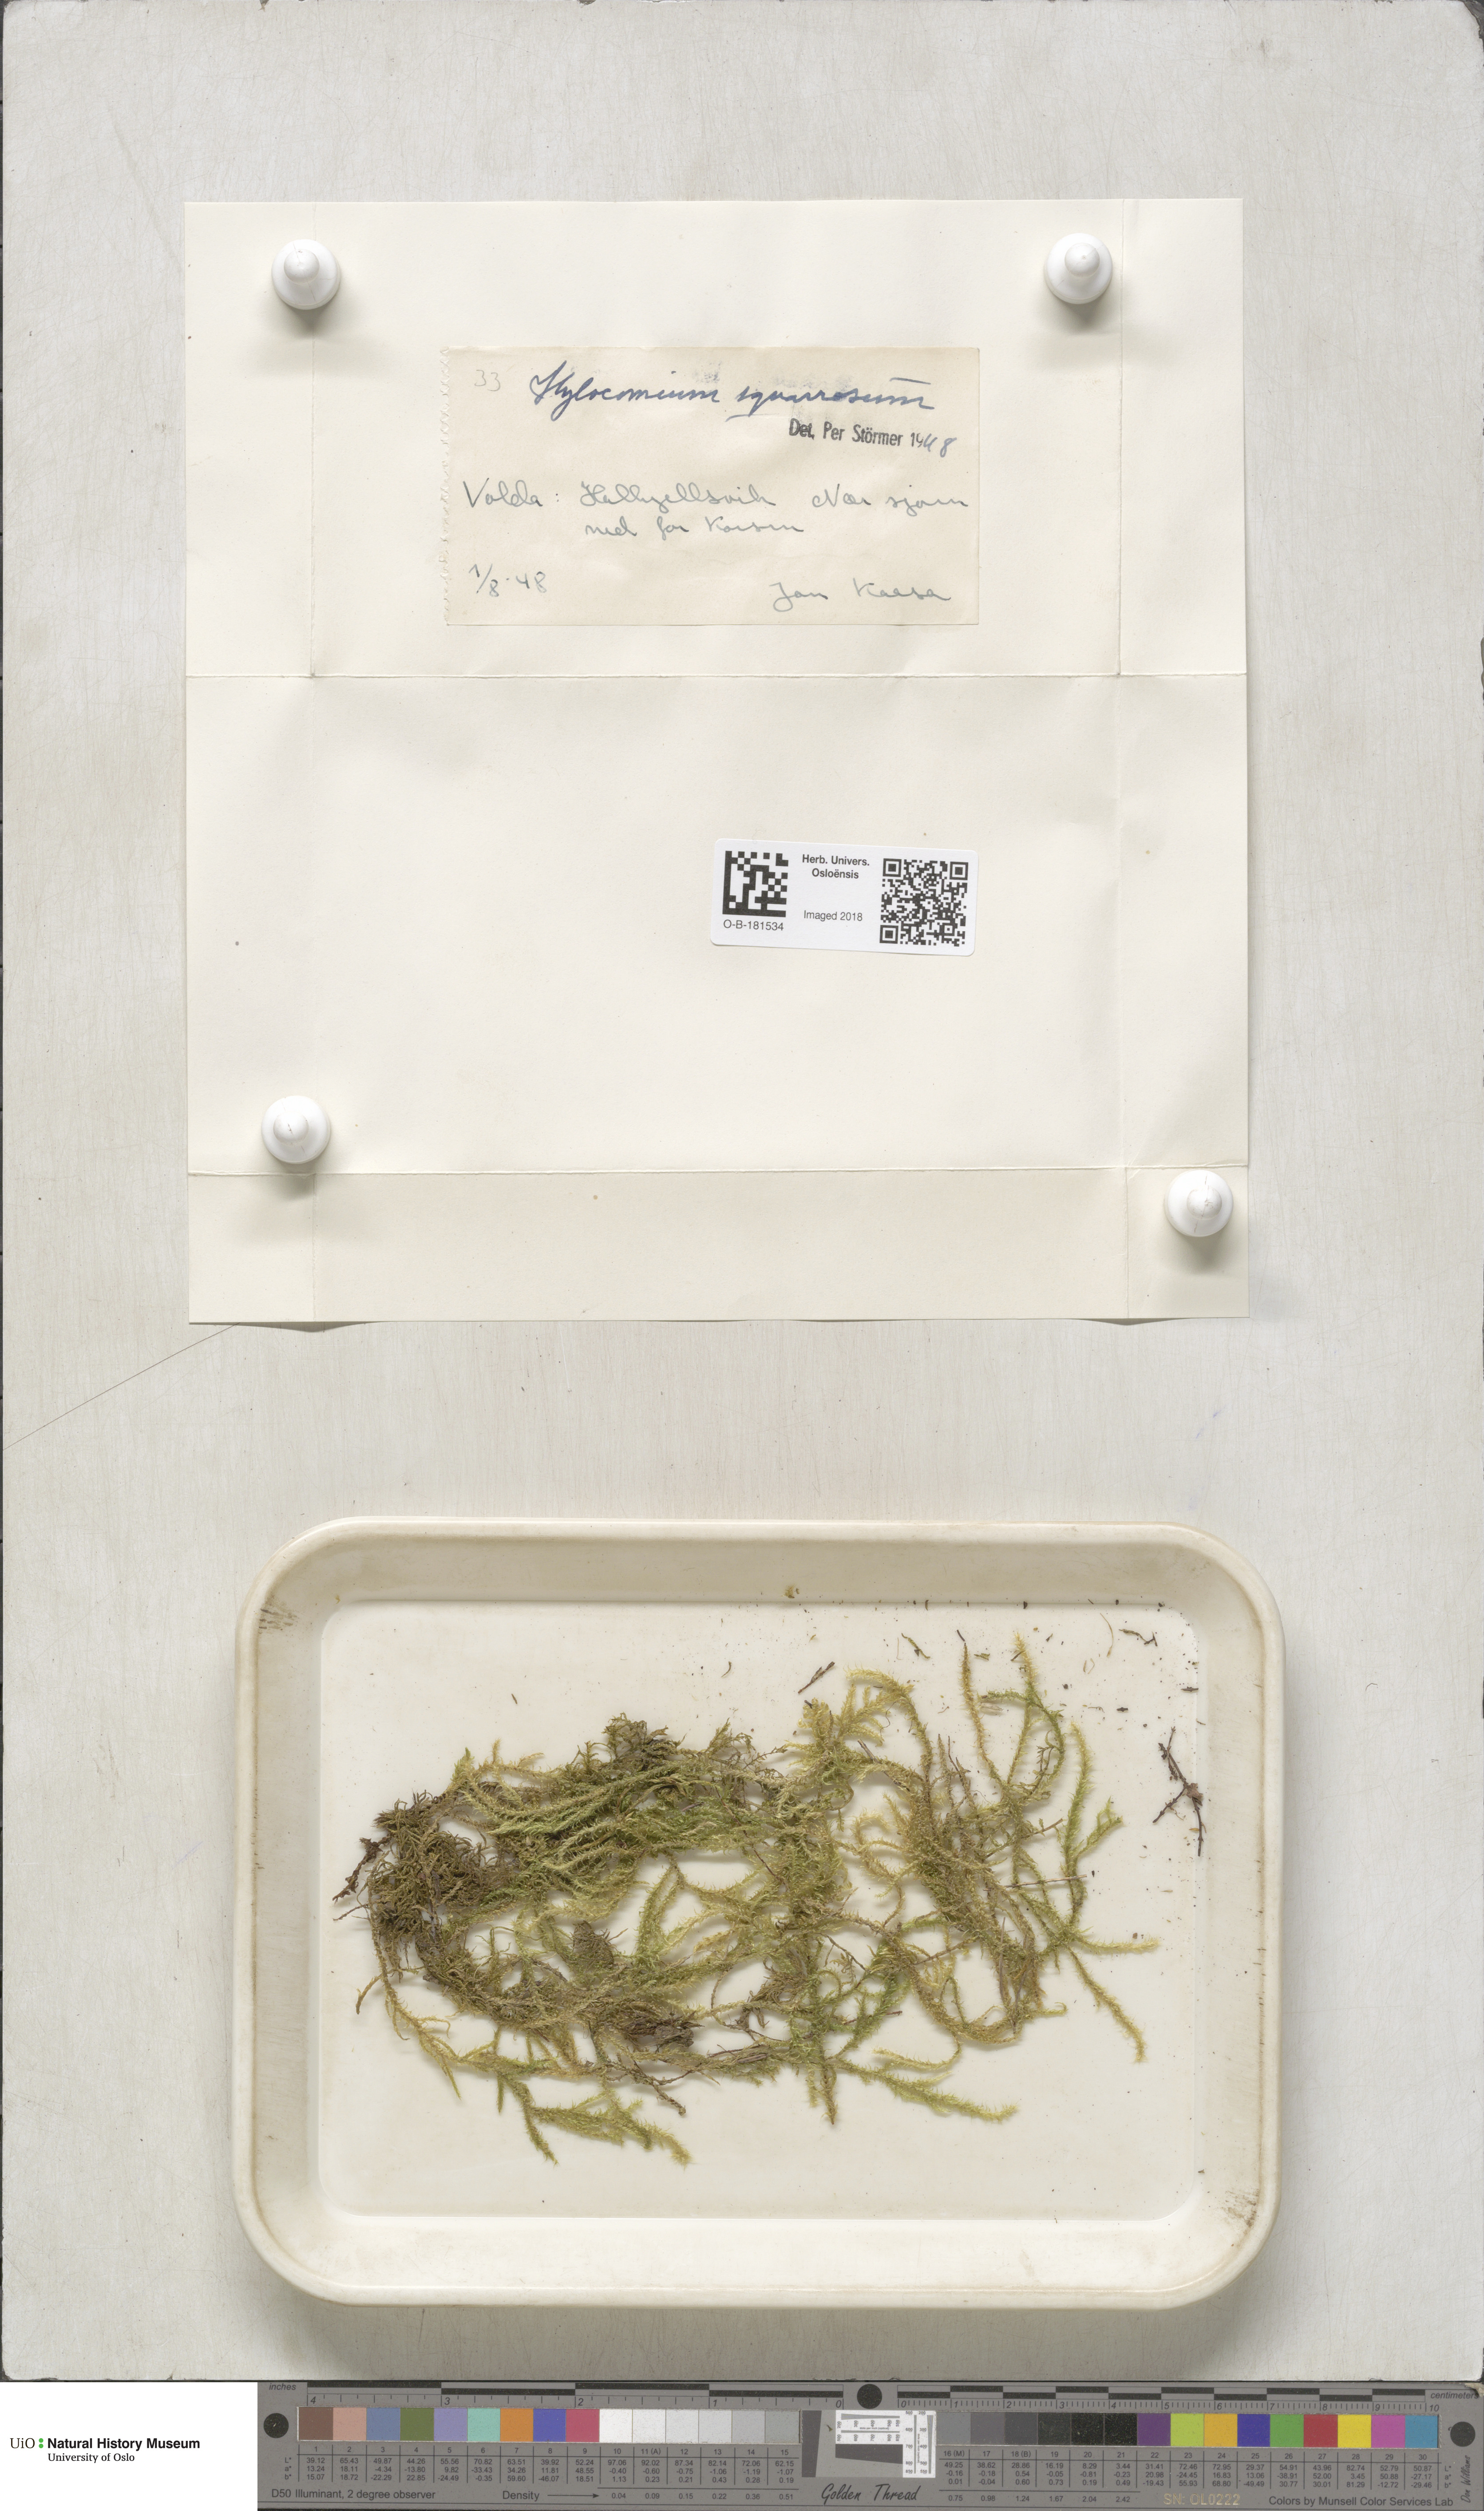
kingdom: Plantae
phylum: Bryophyta
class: Bryopsida
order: Hypnales
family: Hylocomiaceae
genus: Rhytidiadelphus
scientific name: Rhytidiadelphus squarrosus
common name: Springy turf-moss
